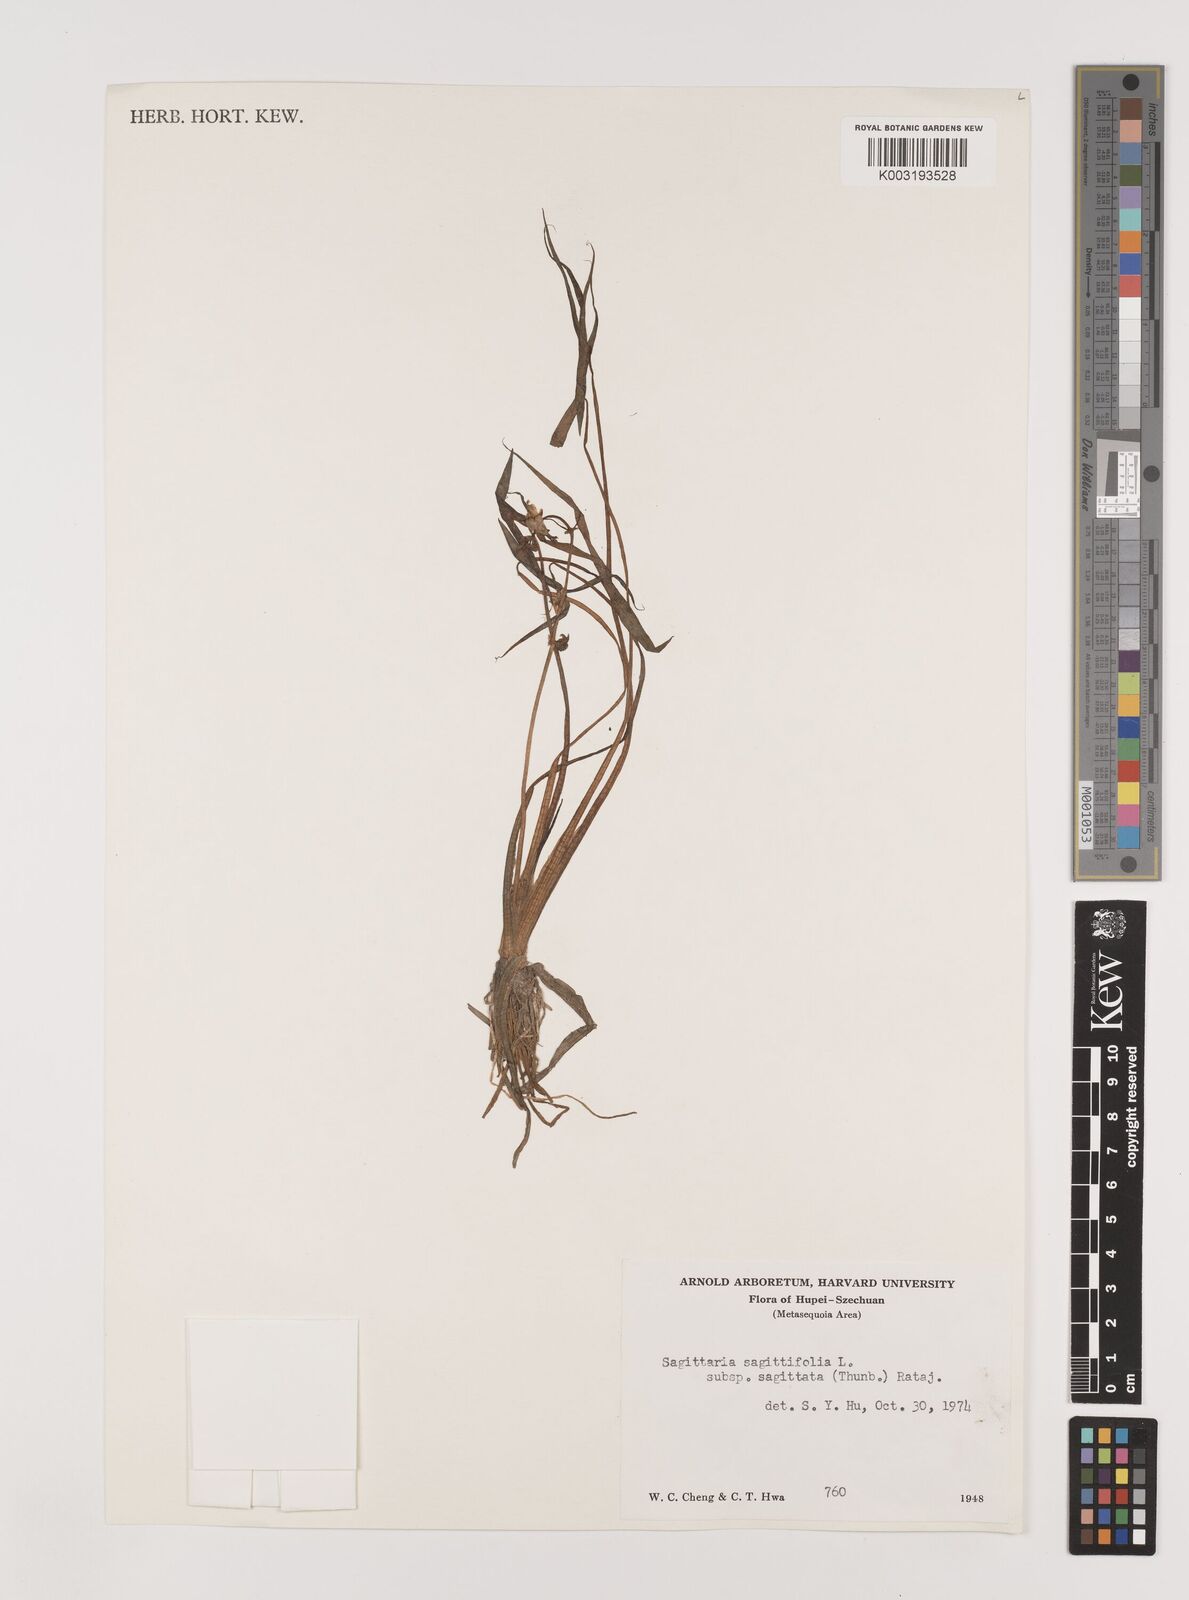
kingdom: Plantae
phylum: Tracheophyta
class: Liliopsida
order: Alismatales
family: Alismataceae
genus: Sagittaria
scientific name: Sagittaria sagittifolia
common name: Arrowhead
